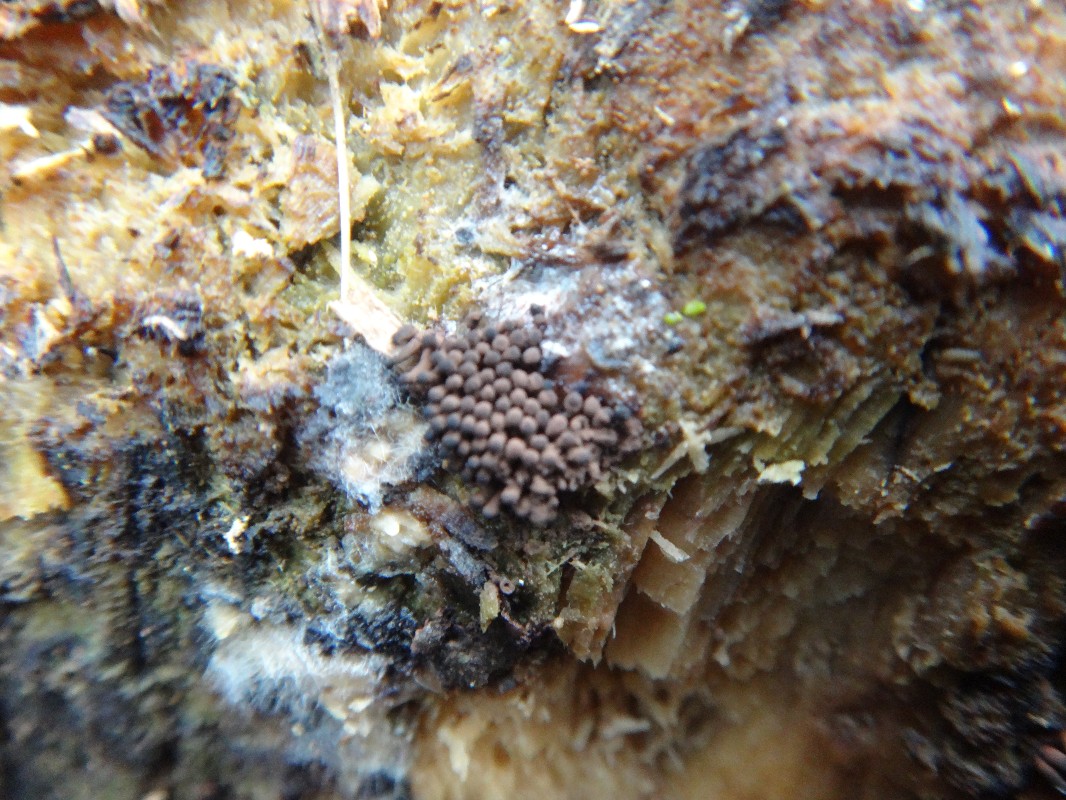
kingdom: Protozoa
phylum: Mycetozoa
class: Myxomycetes
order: Stemonitidales
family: Stemonitidaceae
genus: Stemonitis
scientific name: Stemonitis fusca
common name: sodbrun støvkølle
